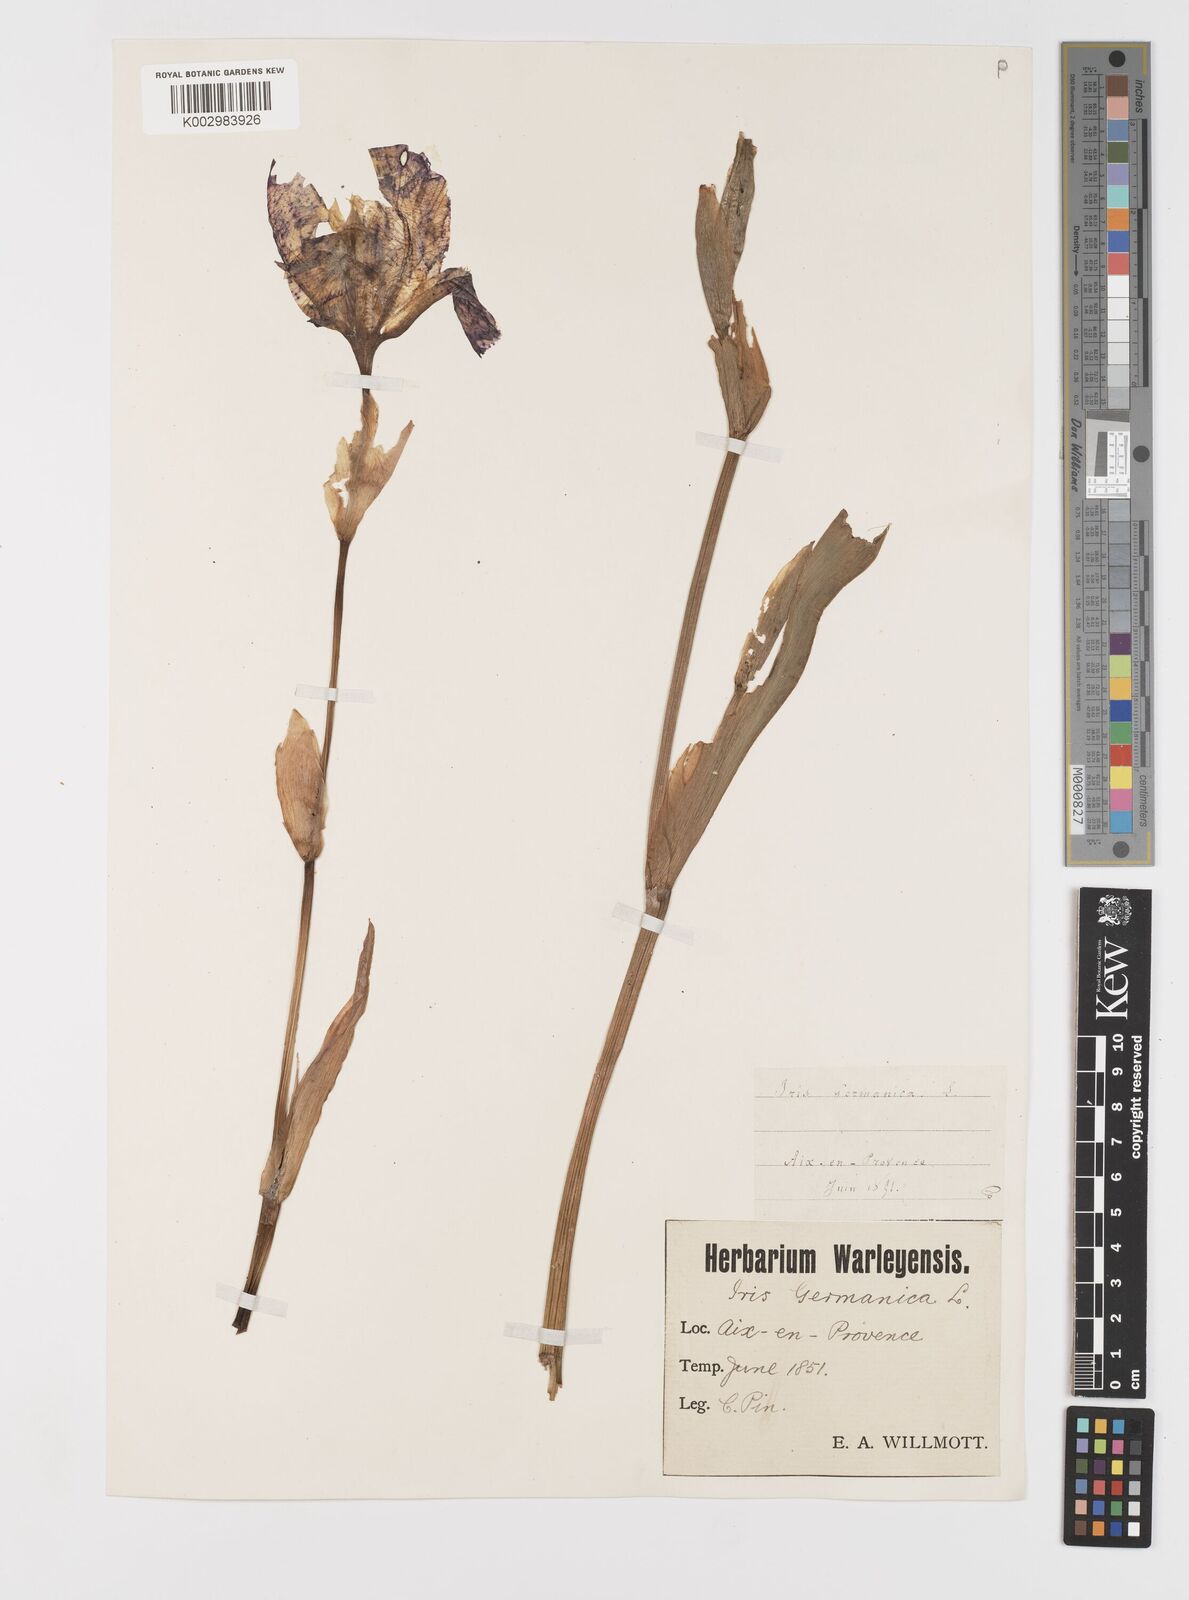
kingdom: Plantae
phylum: Tracheophyta
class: Liliopsida
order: Asparagales
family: Iridaceae
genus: Iris
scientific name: Iris germanica
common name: German iris
